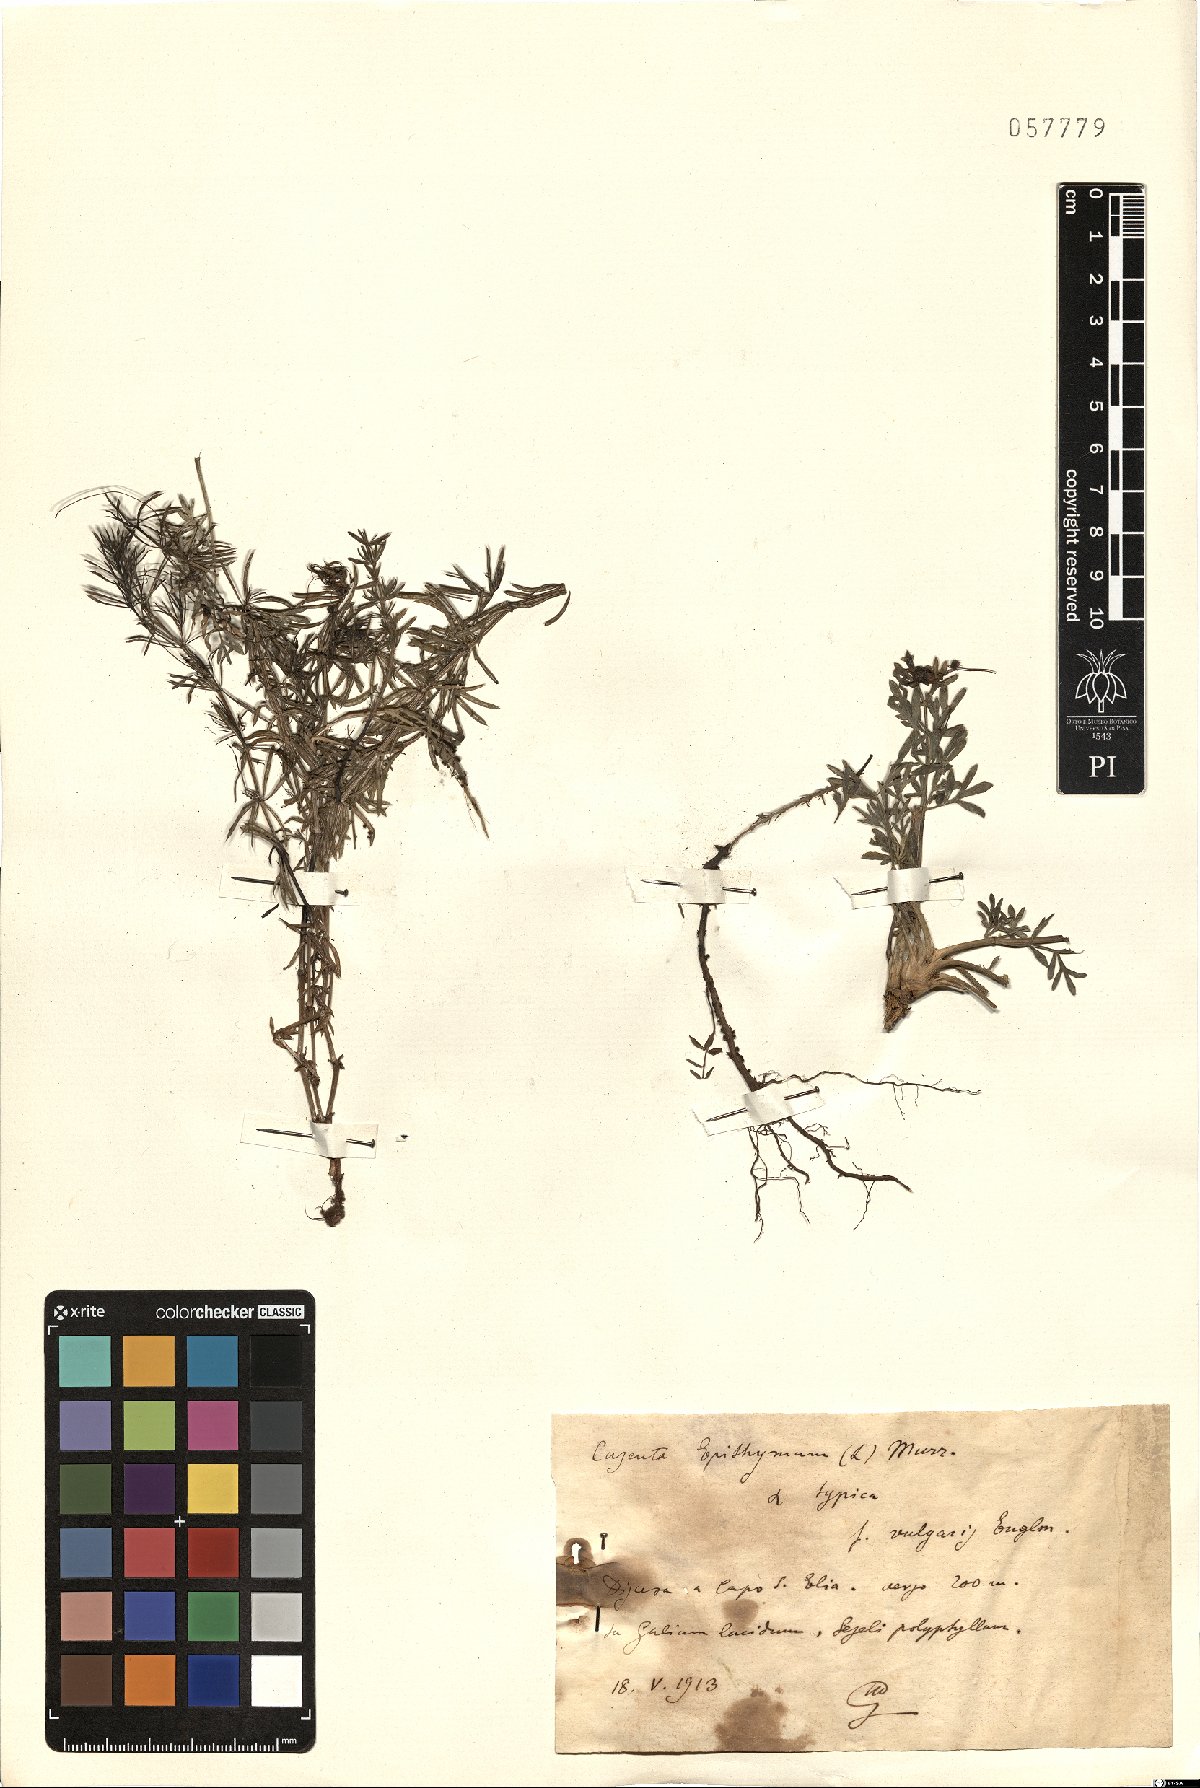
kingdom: Plantae
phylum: Tracheophyta
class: Magnoliopsida
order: Solanales
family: Convolvulaceae
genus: Cuscuta
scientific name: Cuscuta epithymum
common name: Clover dodder
